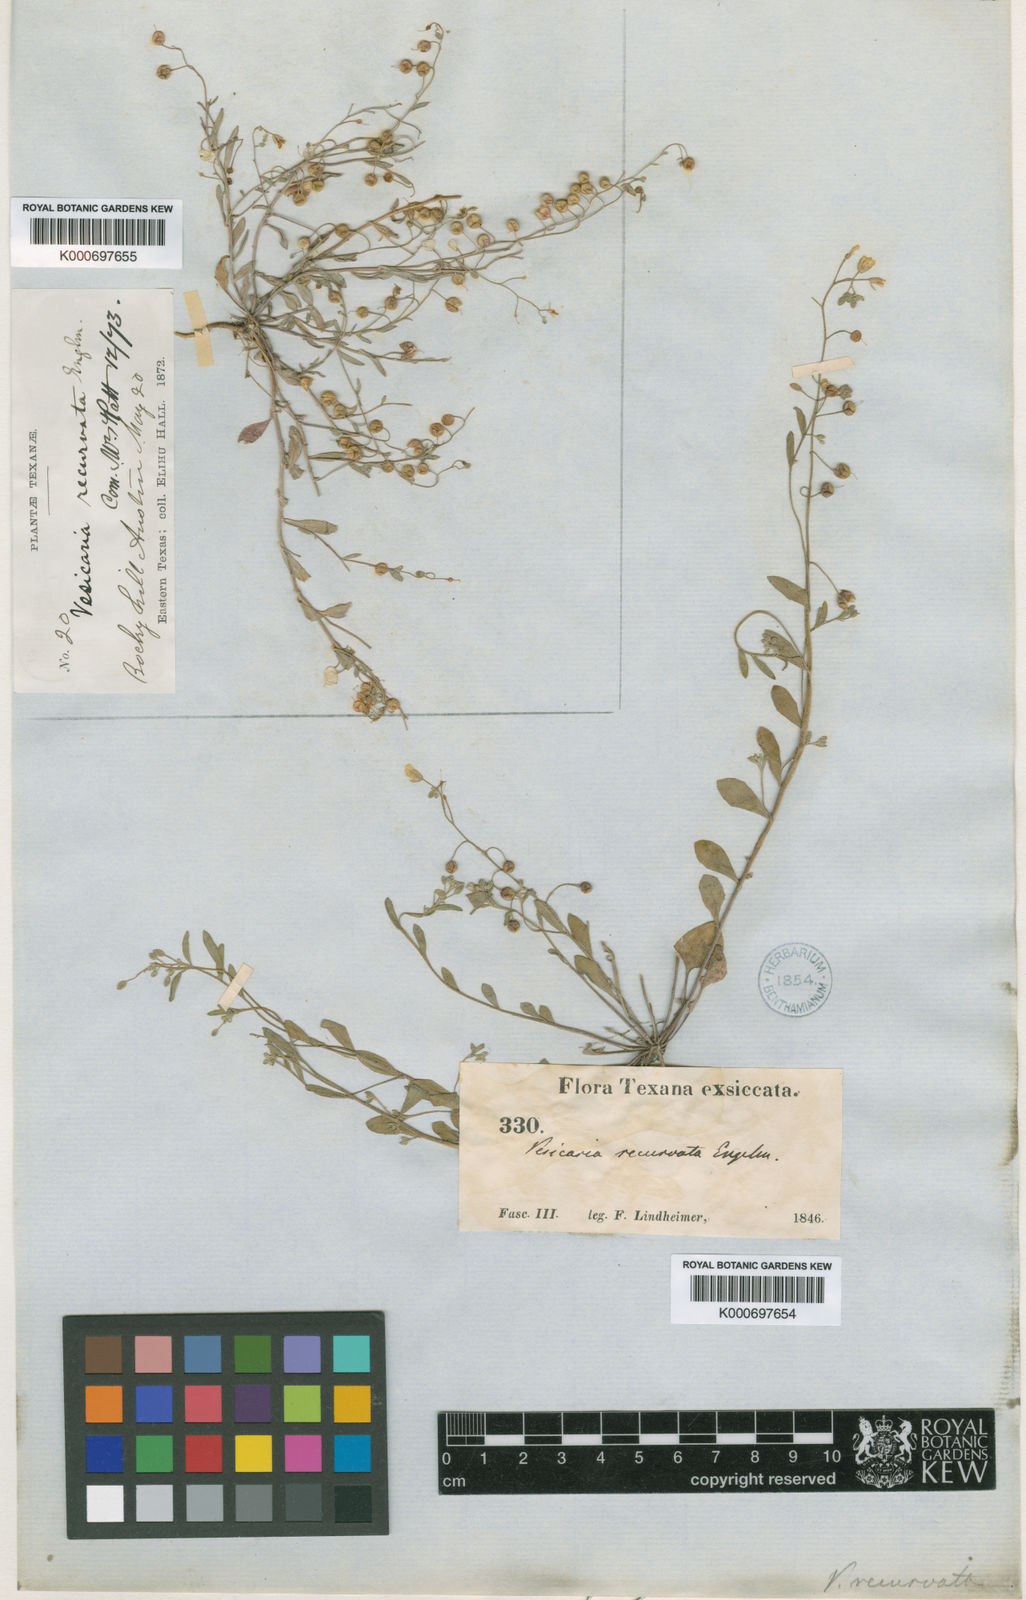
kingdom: Plantae
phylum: Tracheophyta
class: Magnoliopsida
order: Brassicales
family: Brassicaceae
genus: Physaria
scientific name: Physaria recurvata
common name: Gaslight bladderpod
